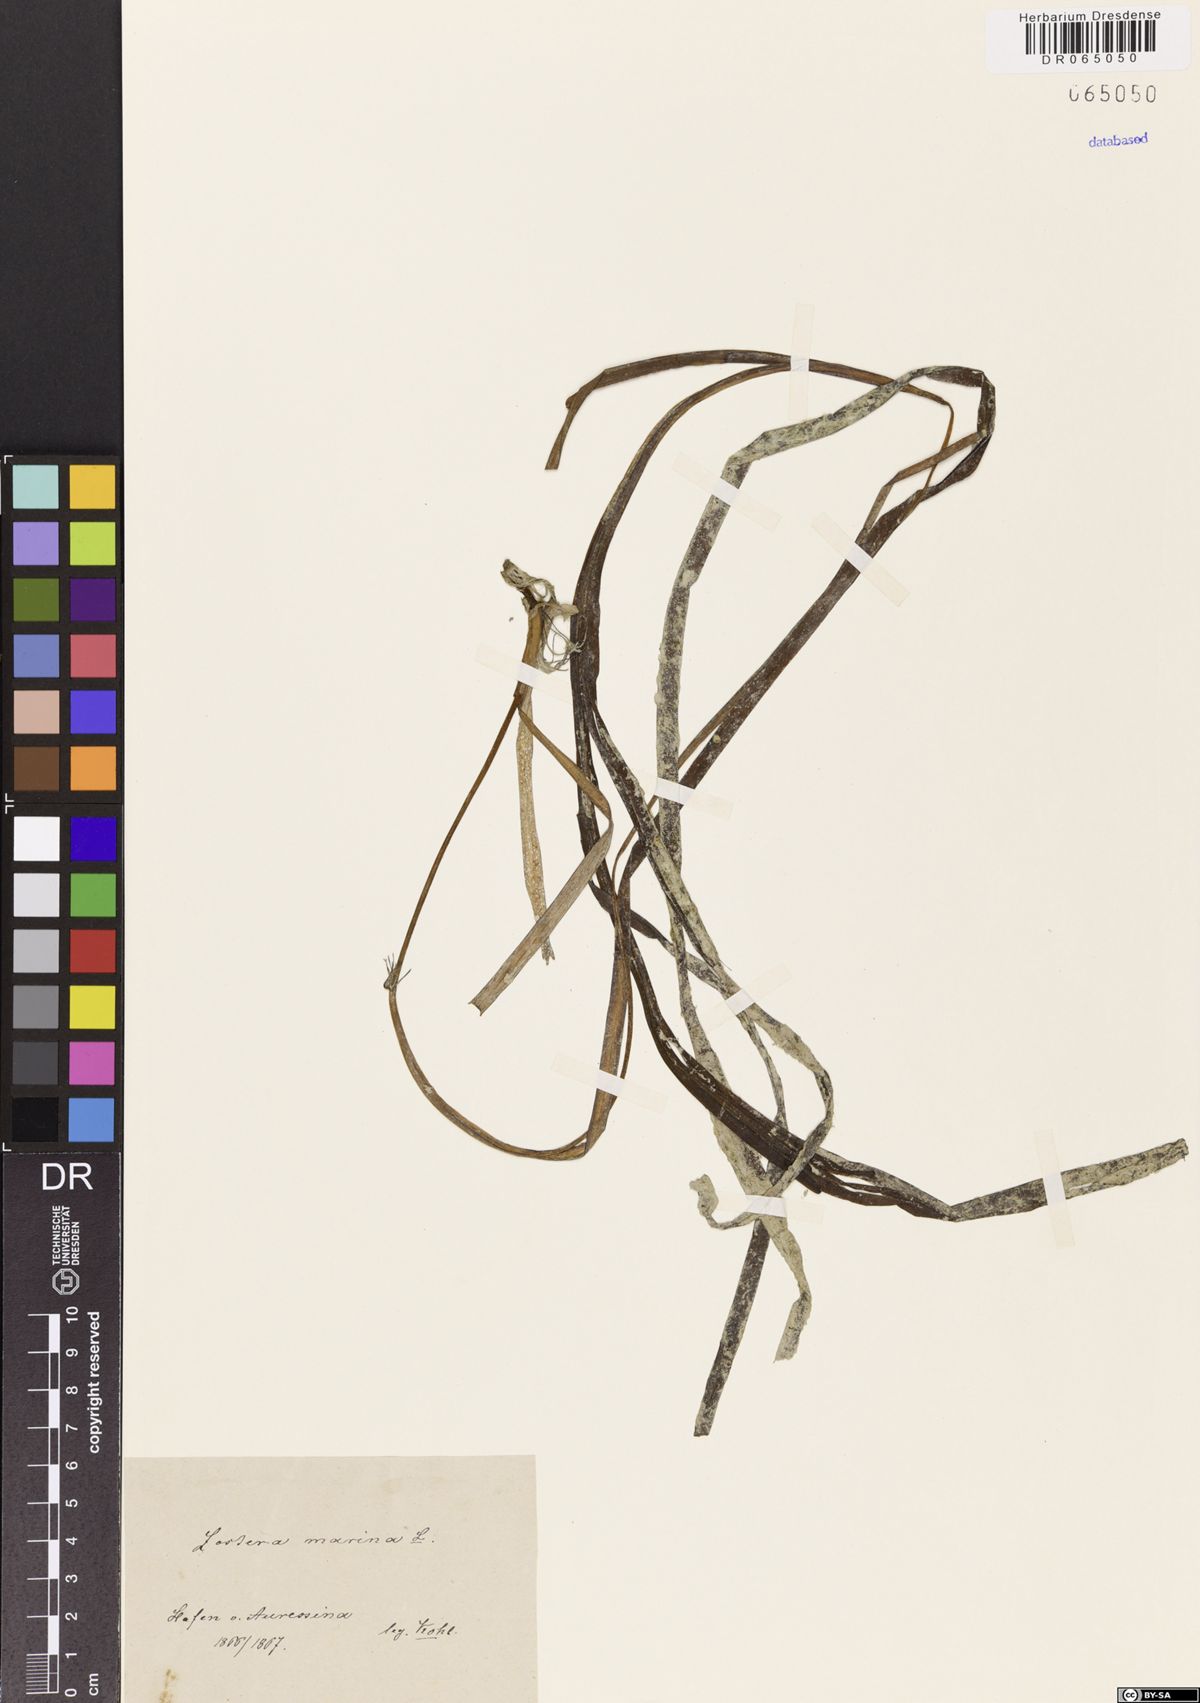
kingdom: Plantae
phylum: Tracheophyta
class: Liliopsida
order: Alismatales
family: Zosteraceae
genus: Zostera
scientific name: Zostera marina
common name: Eelgrass
